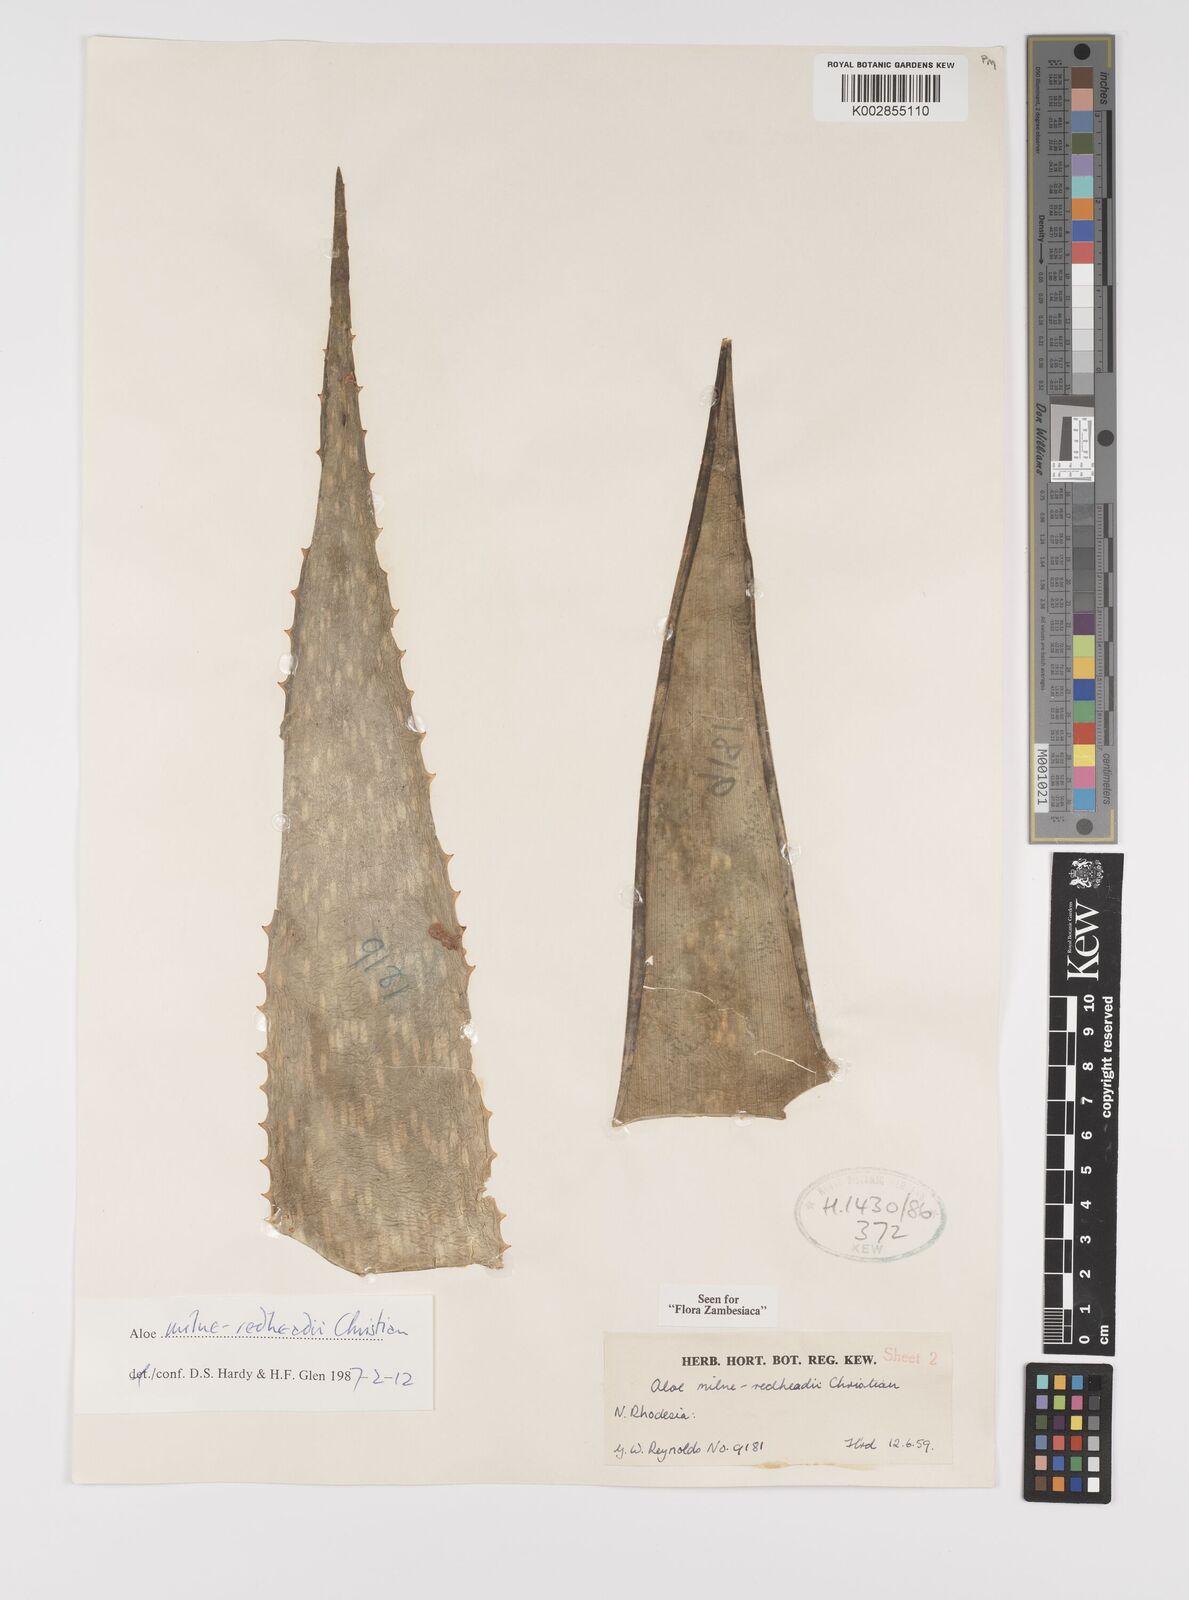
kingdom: Plantae
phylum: Tracheophyta
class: Liliopsida
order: Asparagales
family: Asphodelaceae
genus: Aloe
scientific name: Aloe milne-redheadii
